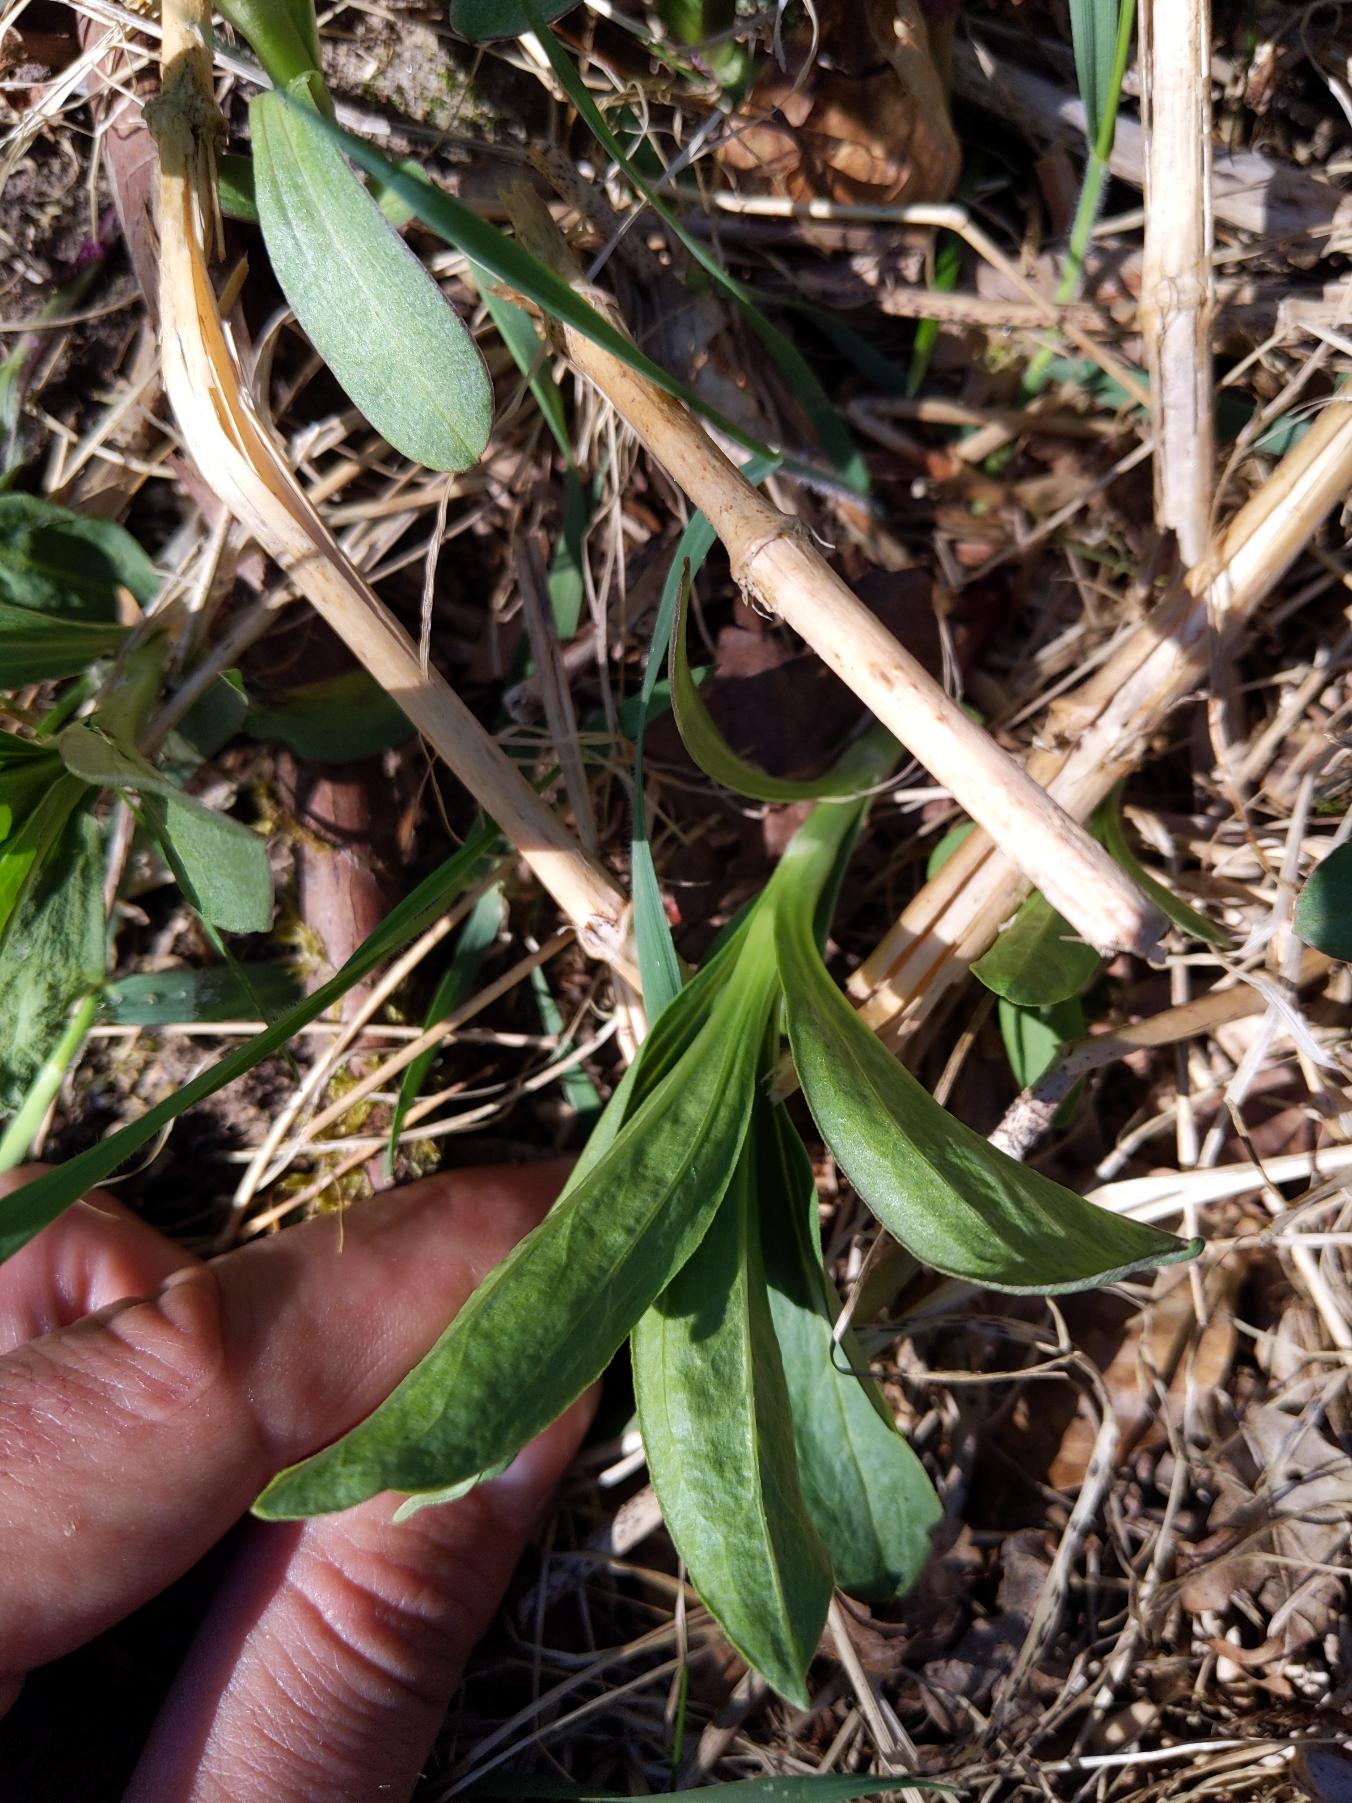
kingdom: Plantae
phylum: Tracheophyta
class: Magnoliopsida
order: Caryophyllales
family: Caryophyllaceae
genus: Saponaria
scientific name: Saponaria officinalis
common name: Sæbeurt
